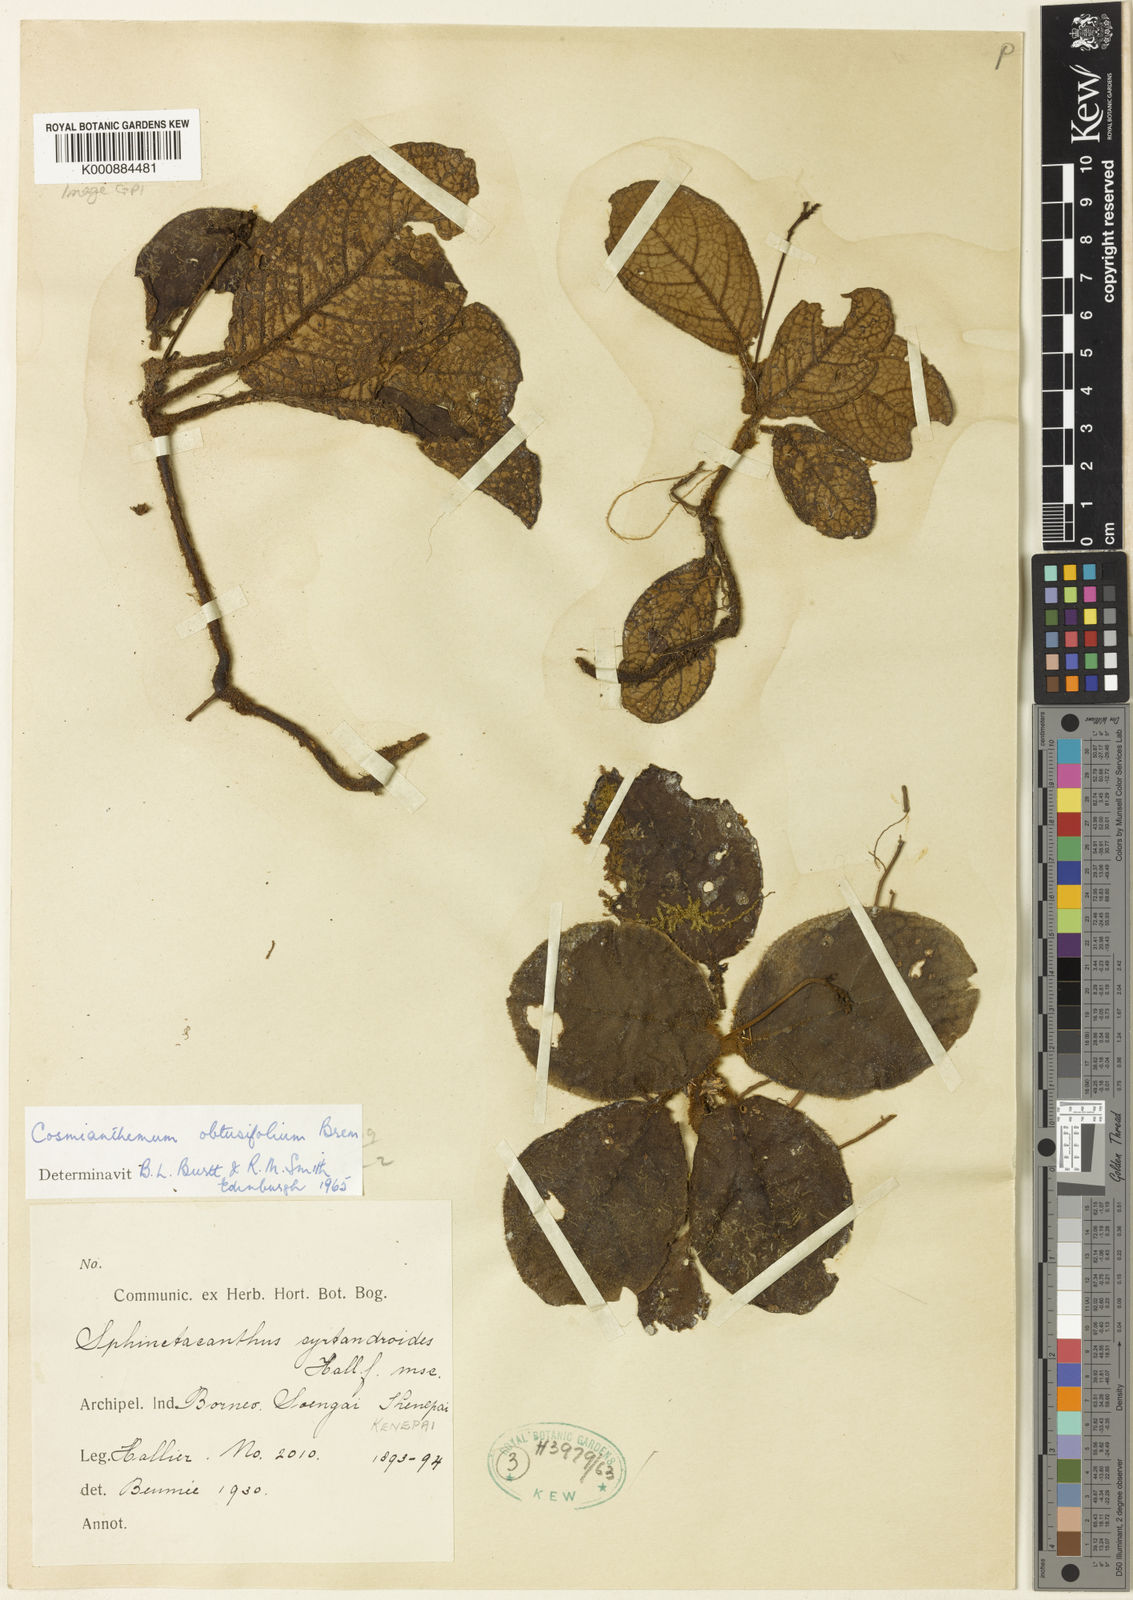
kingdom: Plantae
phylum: Tracheophyta
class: Magnoliopsida
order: Lamiales
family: Acanthaceae
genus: Cosmianthemum
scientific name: Cosmianthemum obtusifolium
